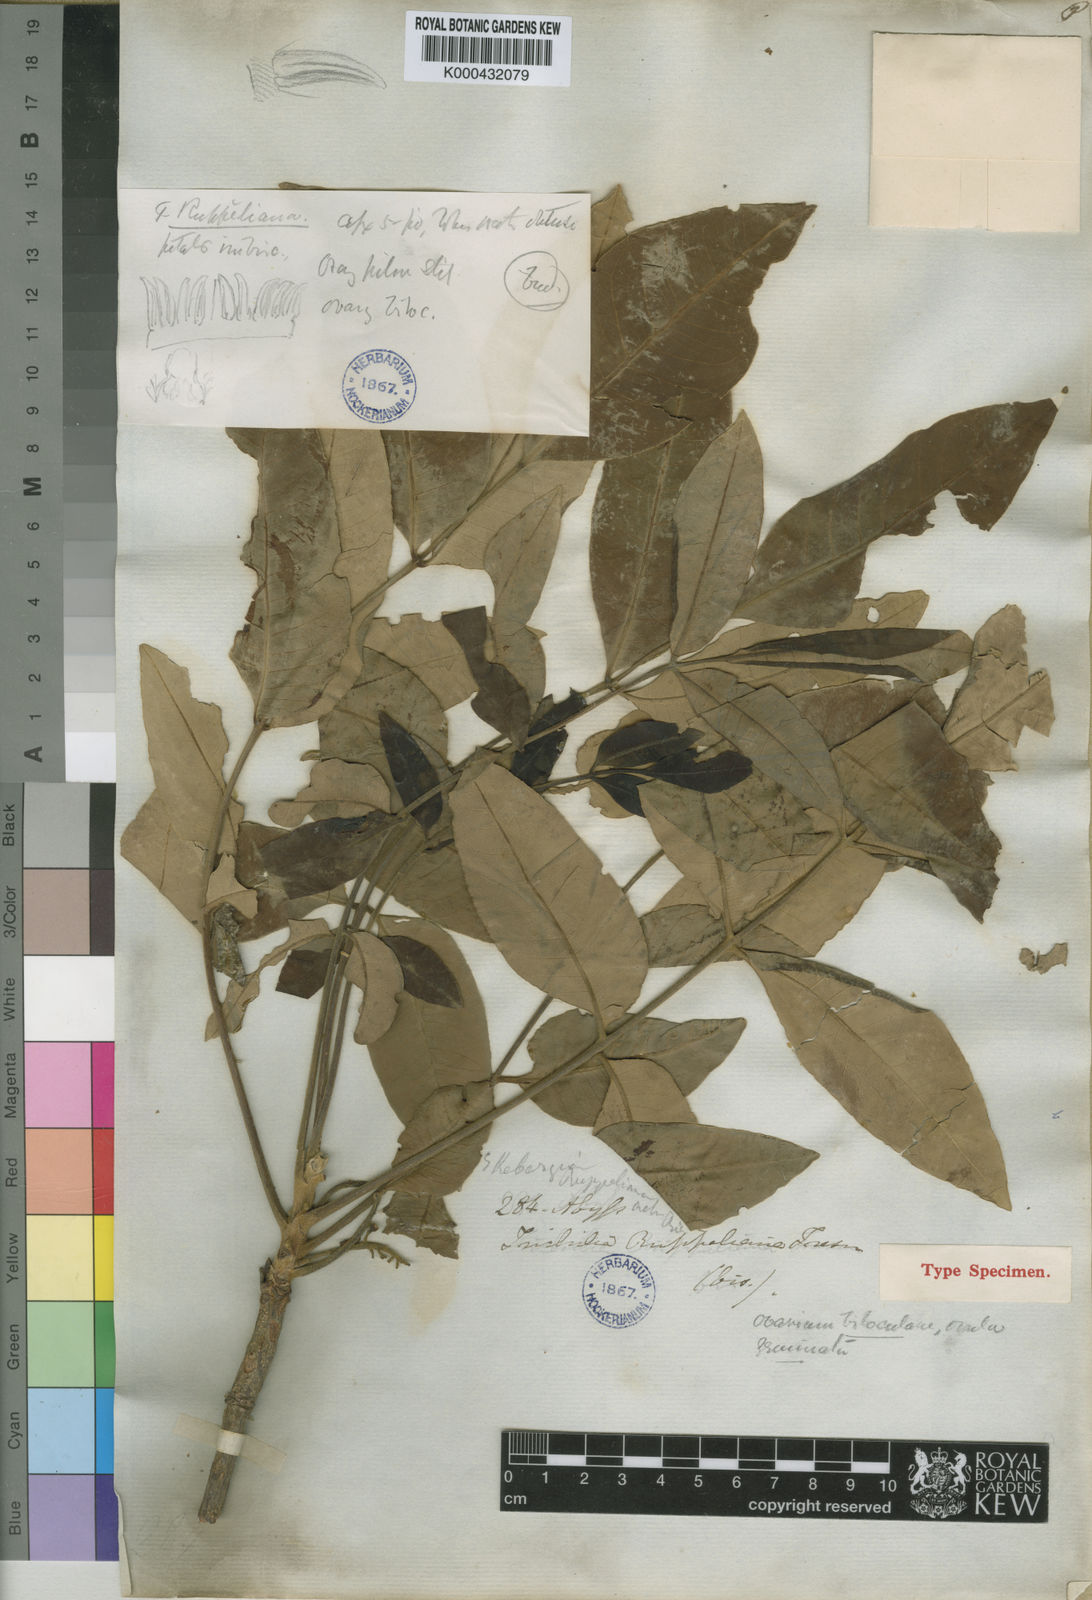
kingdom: Plantae
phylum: Tracheophyta
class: Magnoliopsida
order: Sapindales
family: Meliaceae
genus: Ekebergia
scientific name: Ekebergia capensis
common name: Cape-ash
